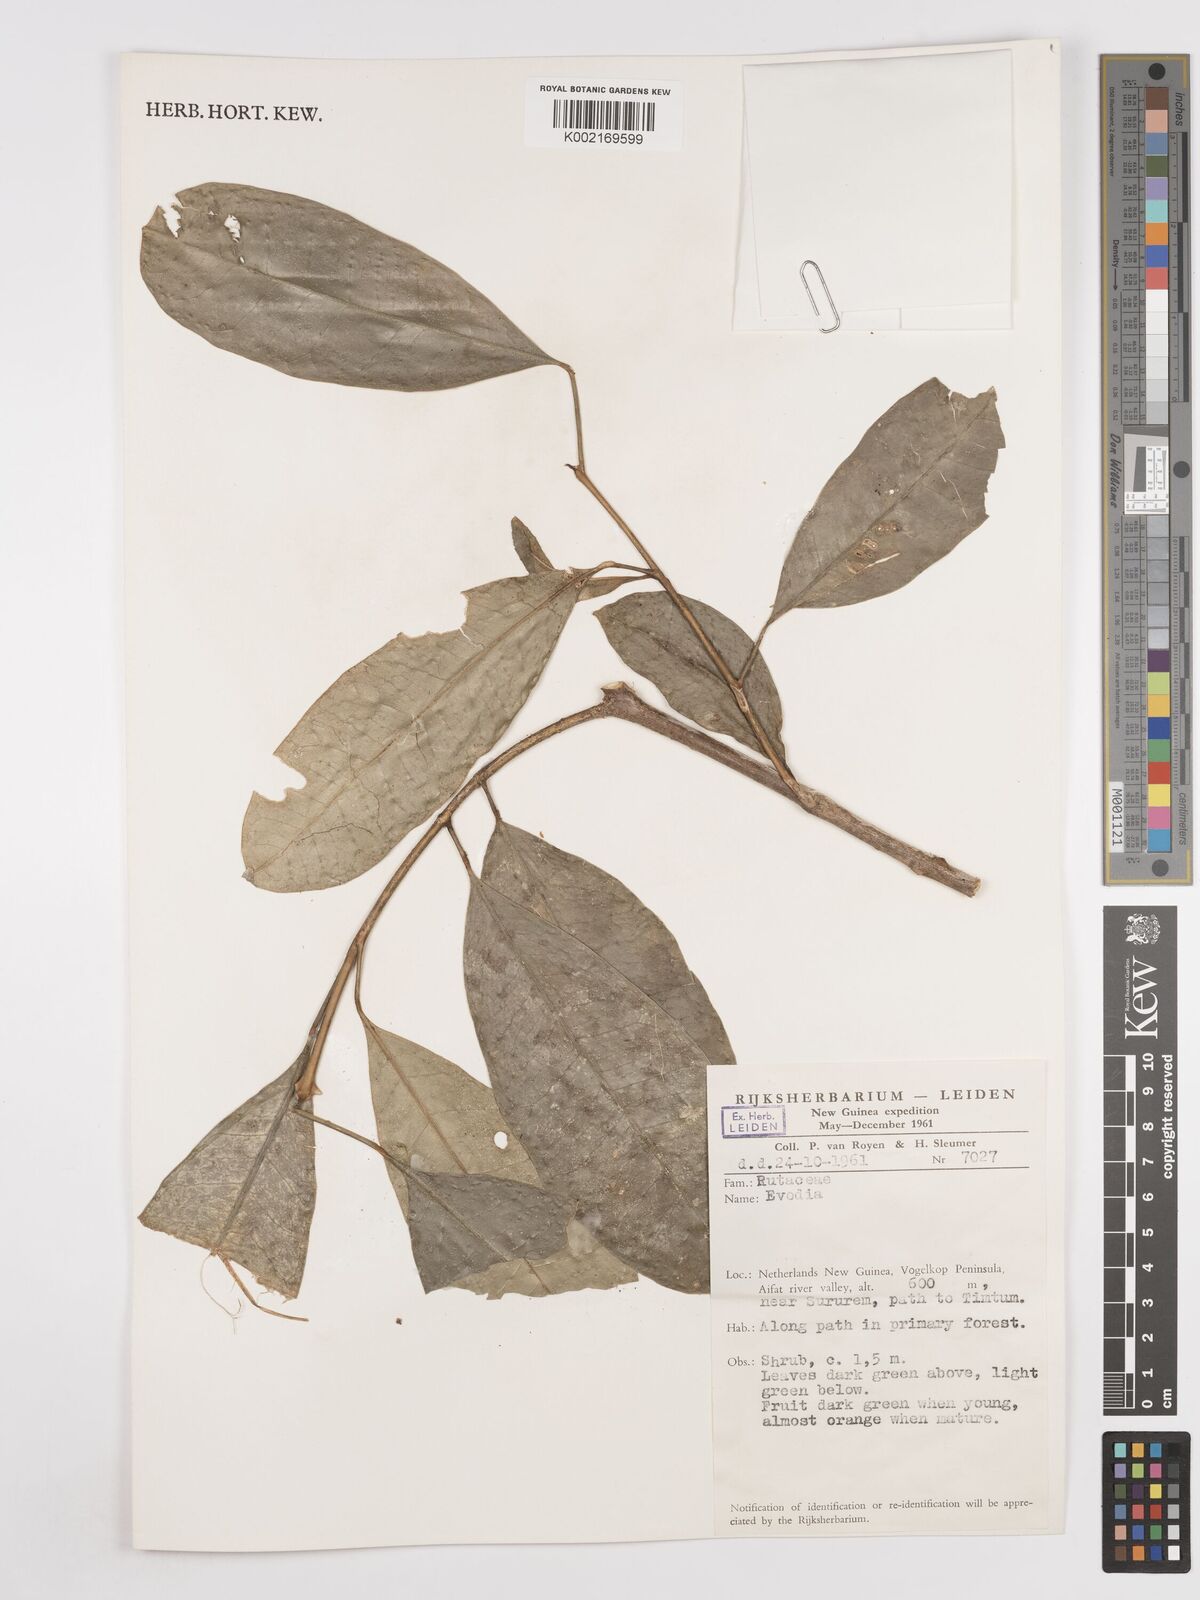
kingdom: Plantae
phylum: Tracheophyta
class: Magnoliopsida
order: Sapindales
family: Rutaceae
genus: Euodia
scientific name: Euodia
